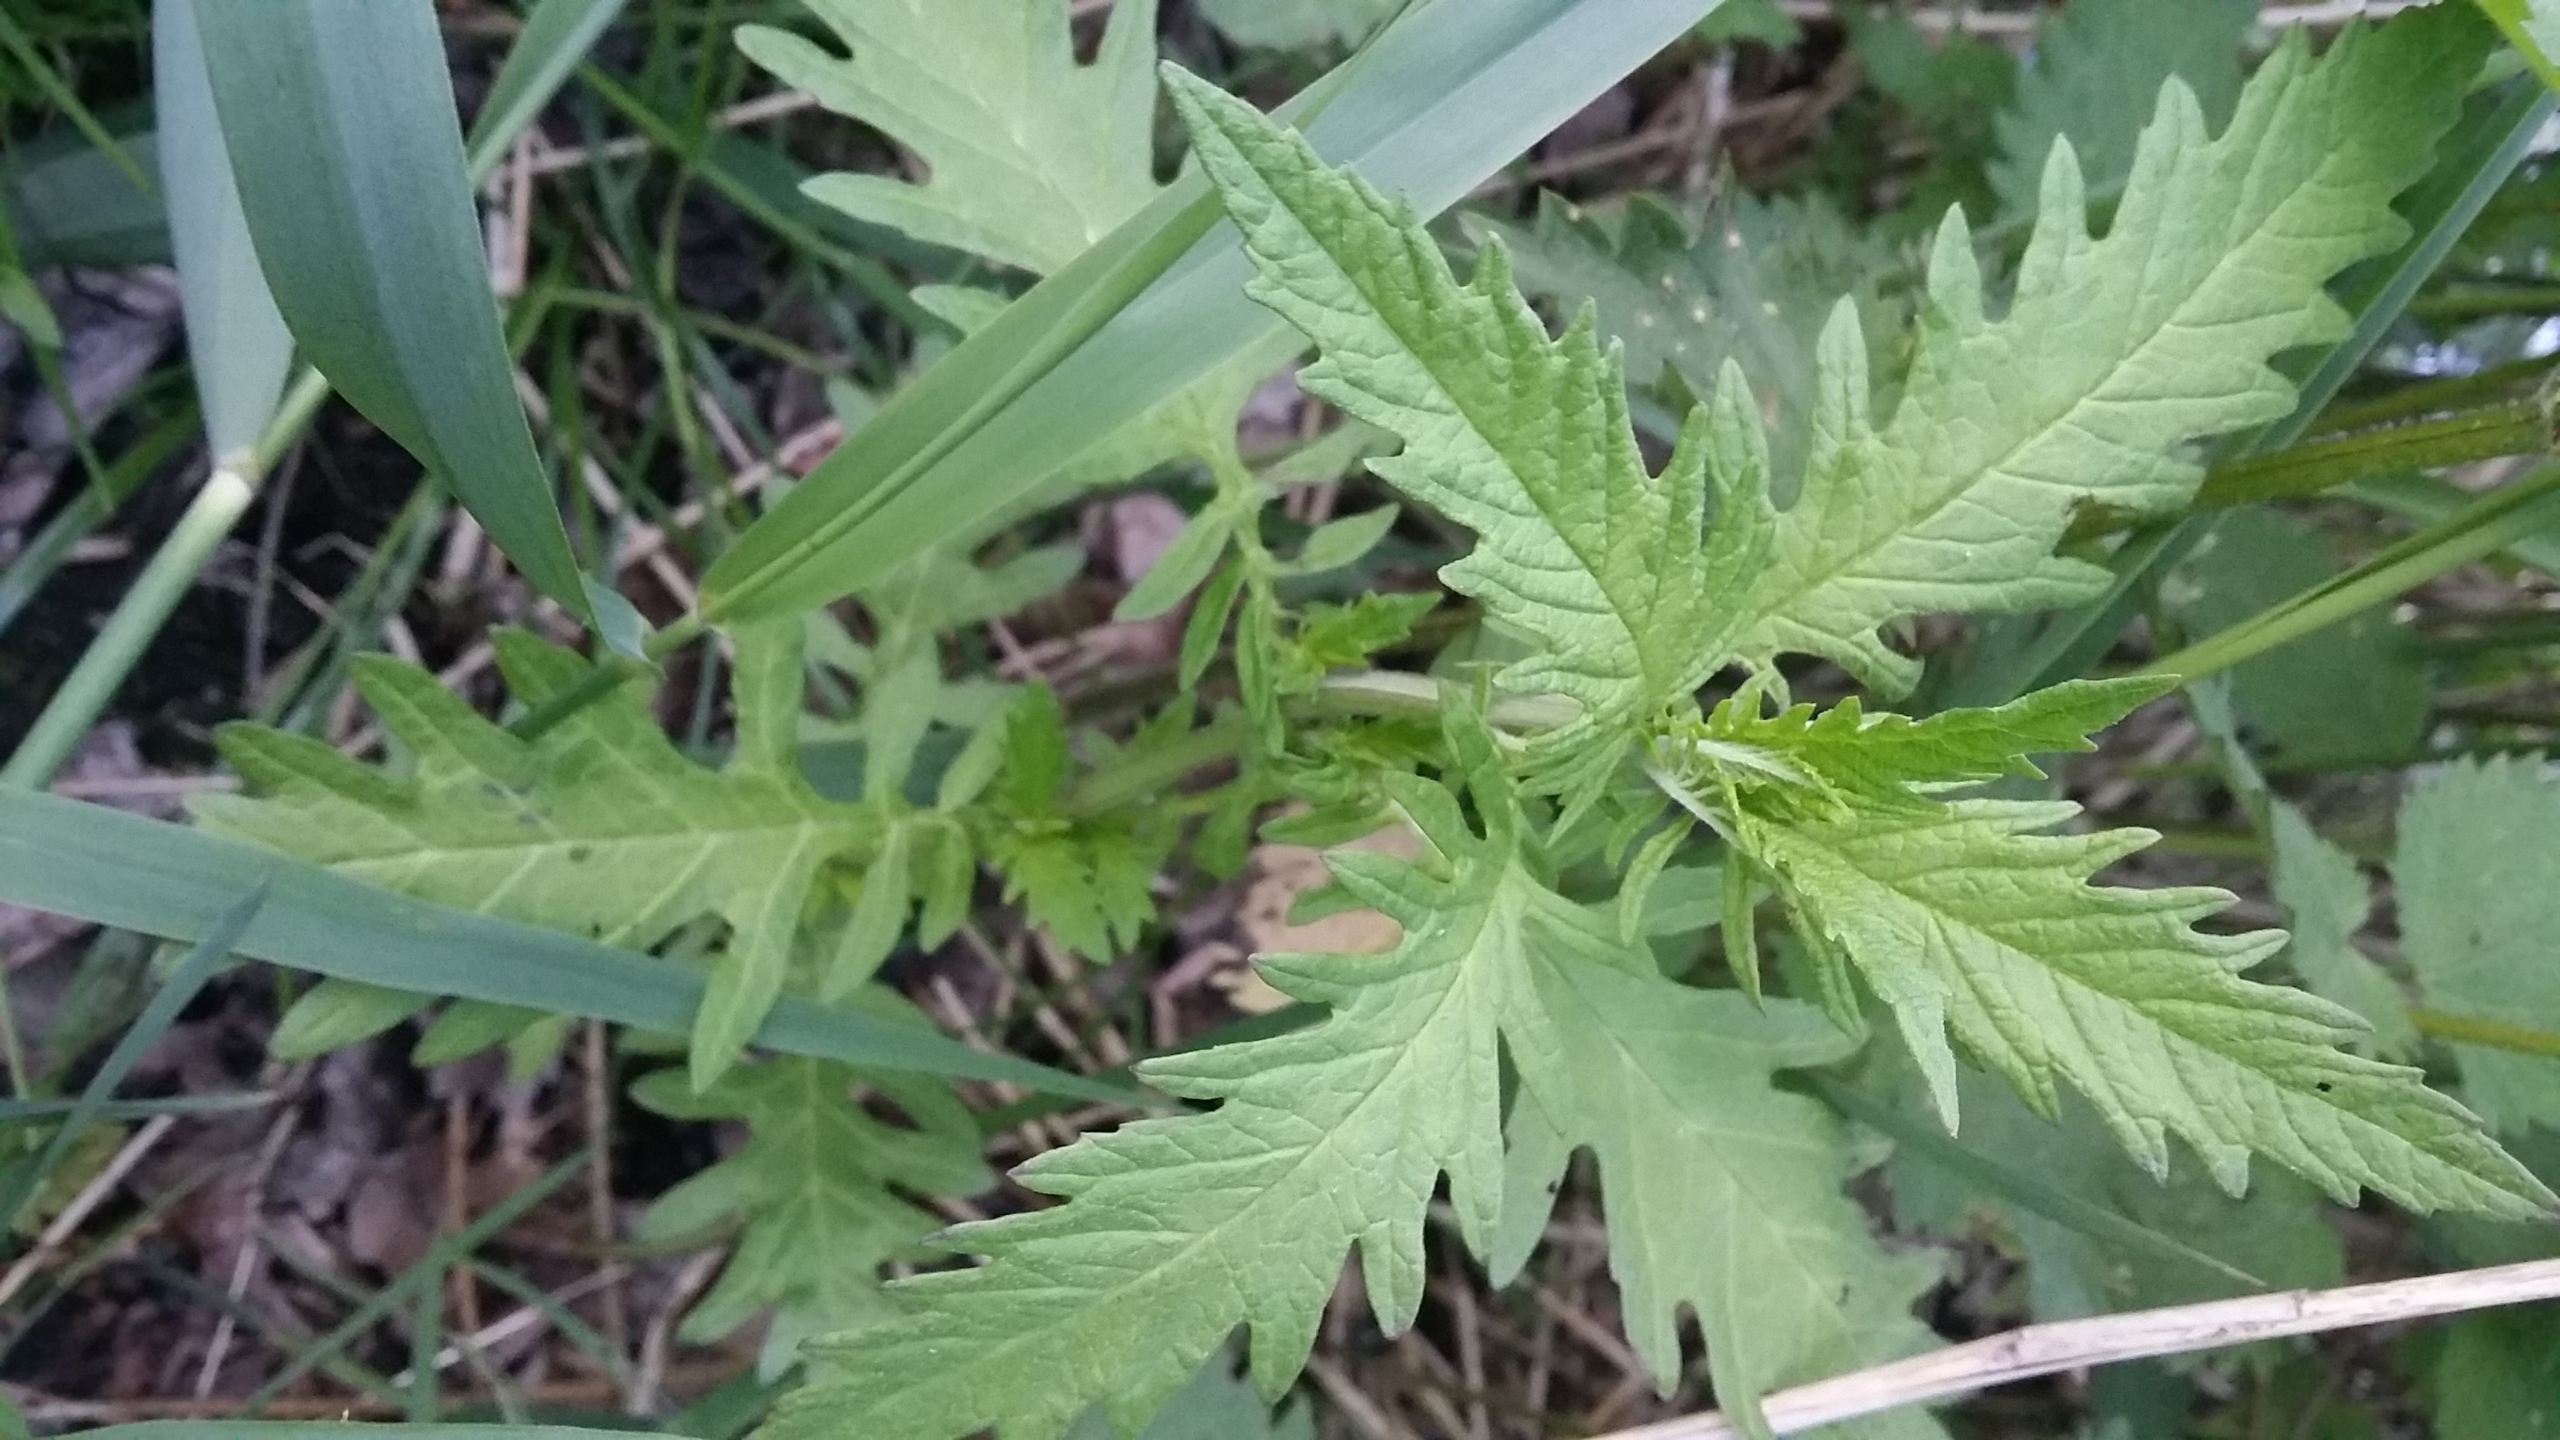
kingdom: Plantae
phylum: Tracheophyta
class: Magnoliopsida
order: Lamiales
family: Lamiaceae
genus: Lycopus
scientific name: Lycopus europaeus
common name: Sværtevæld
